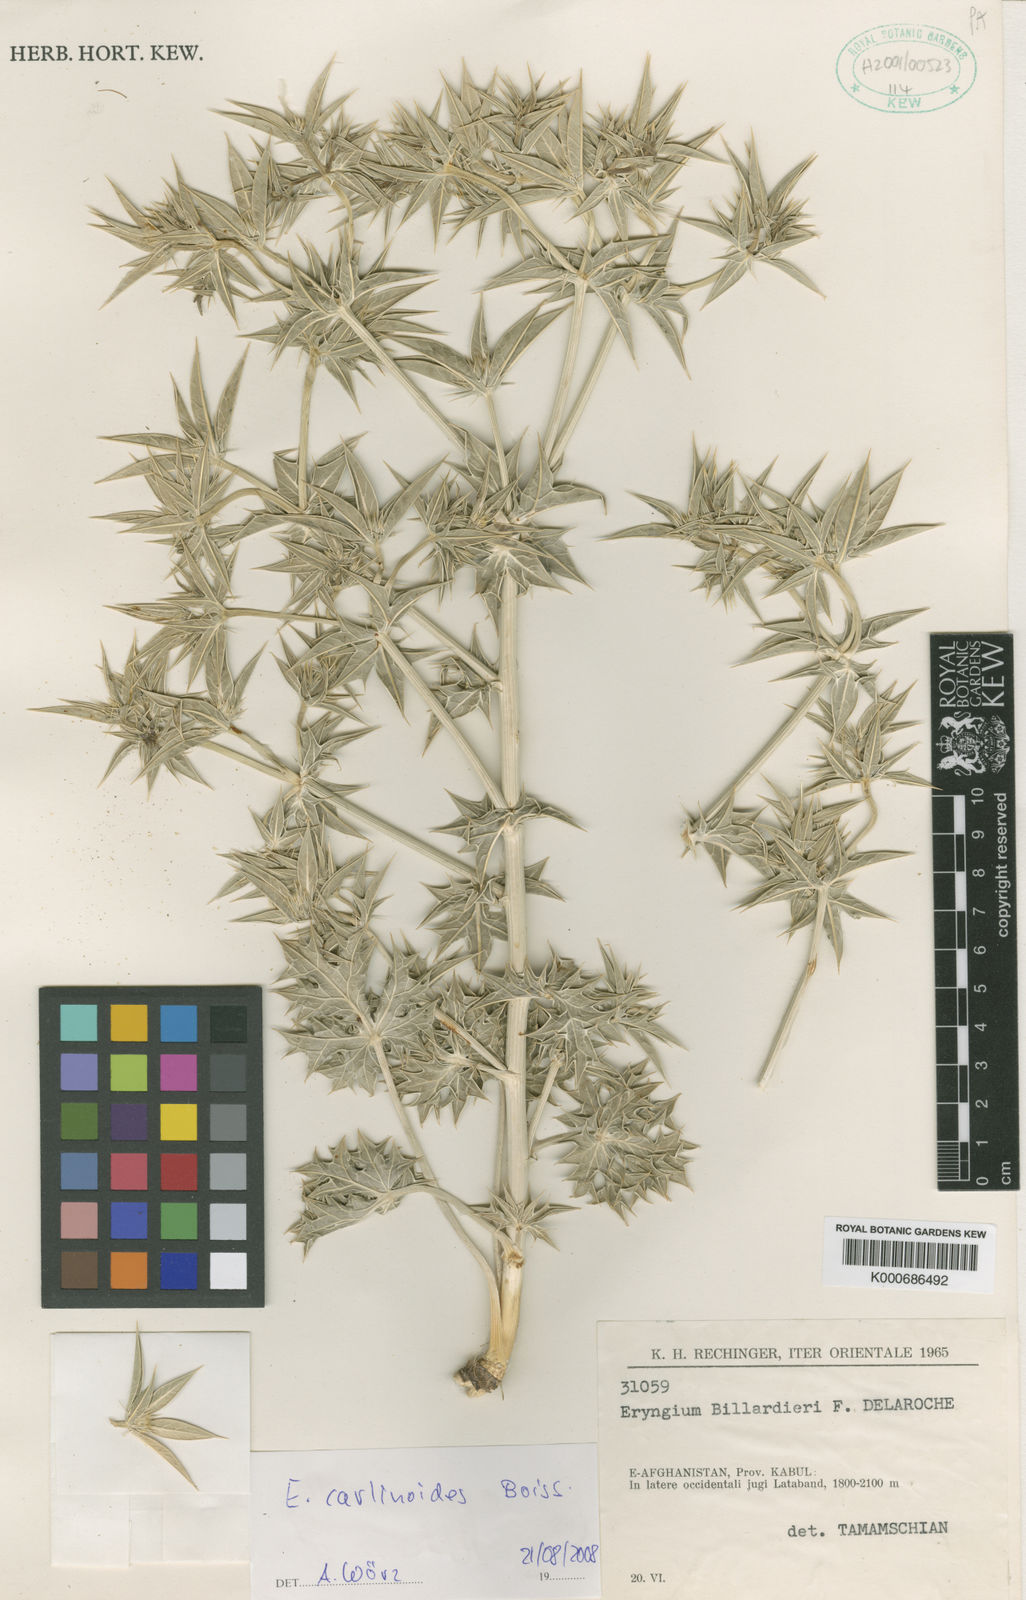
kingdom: Plantae
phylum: Tracheophyta
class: Magnoliopsida
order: Apiales
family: Apiaceae
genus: Eryngium
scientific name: Eryngium carlinoides
